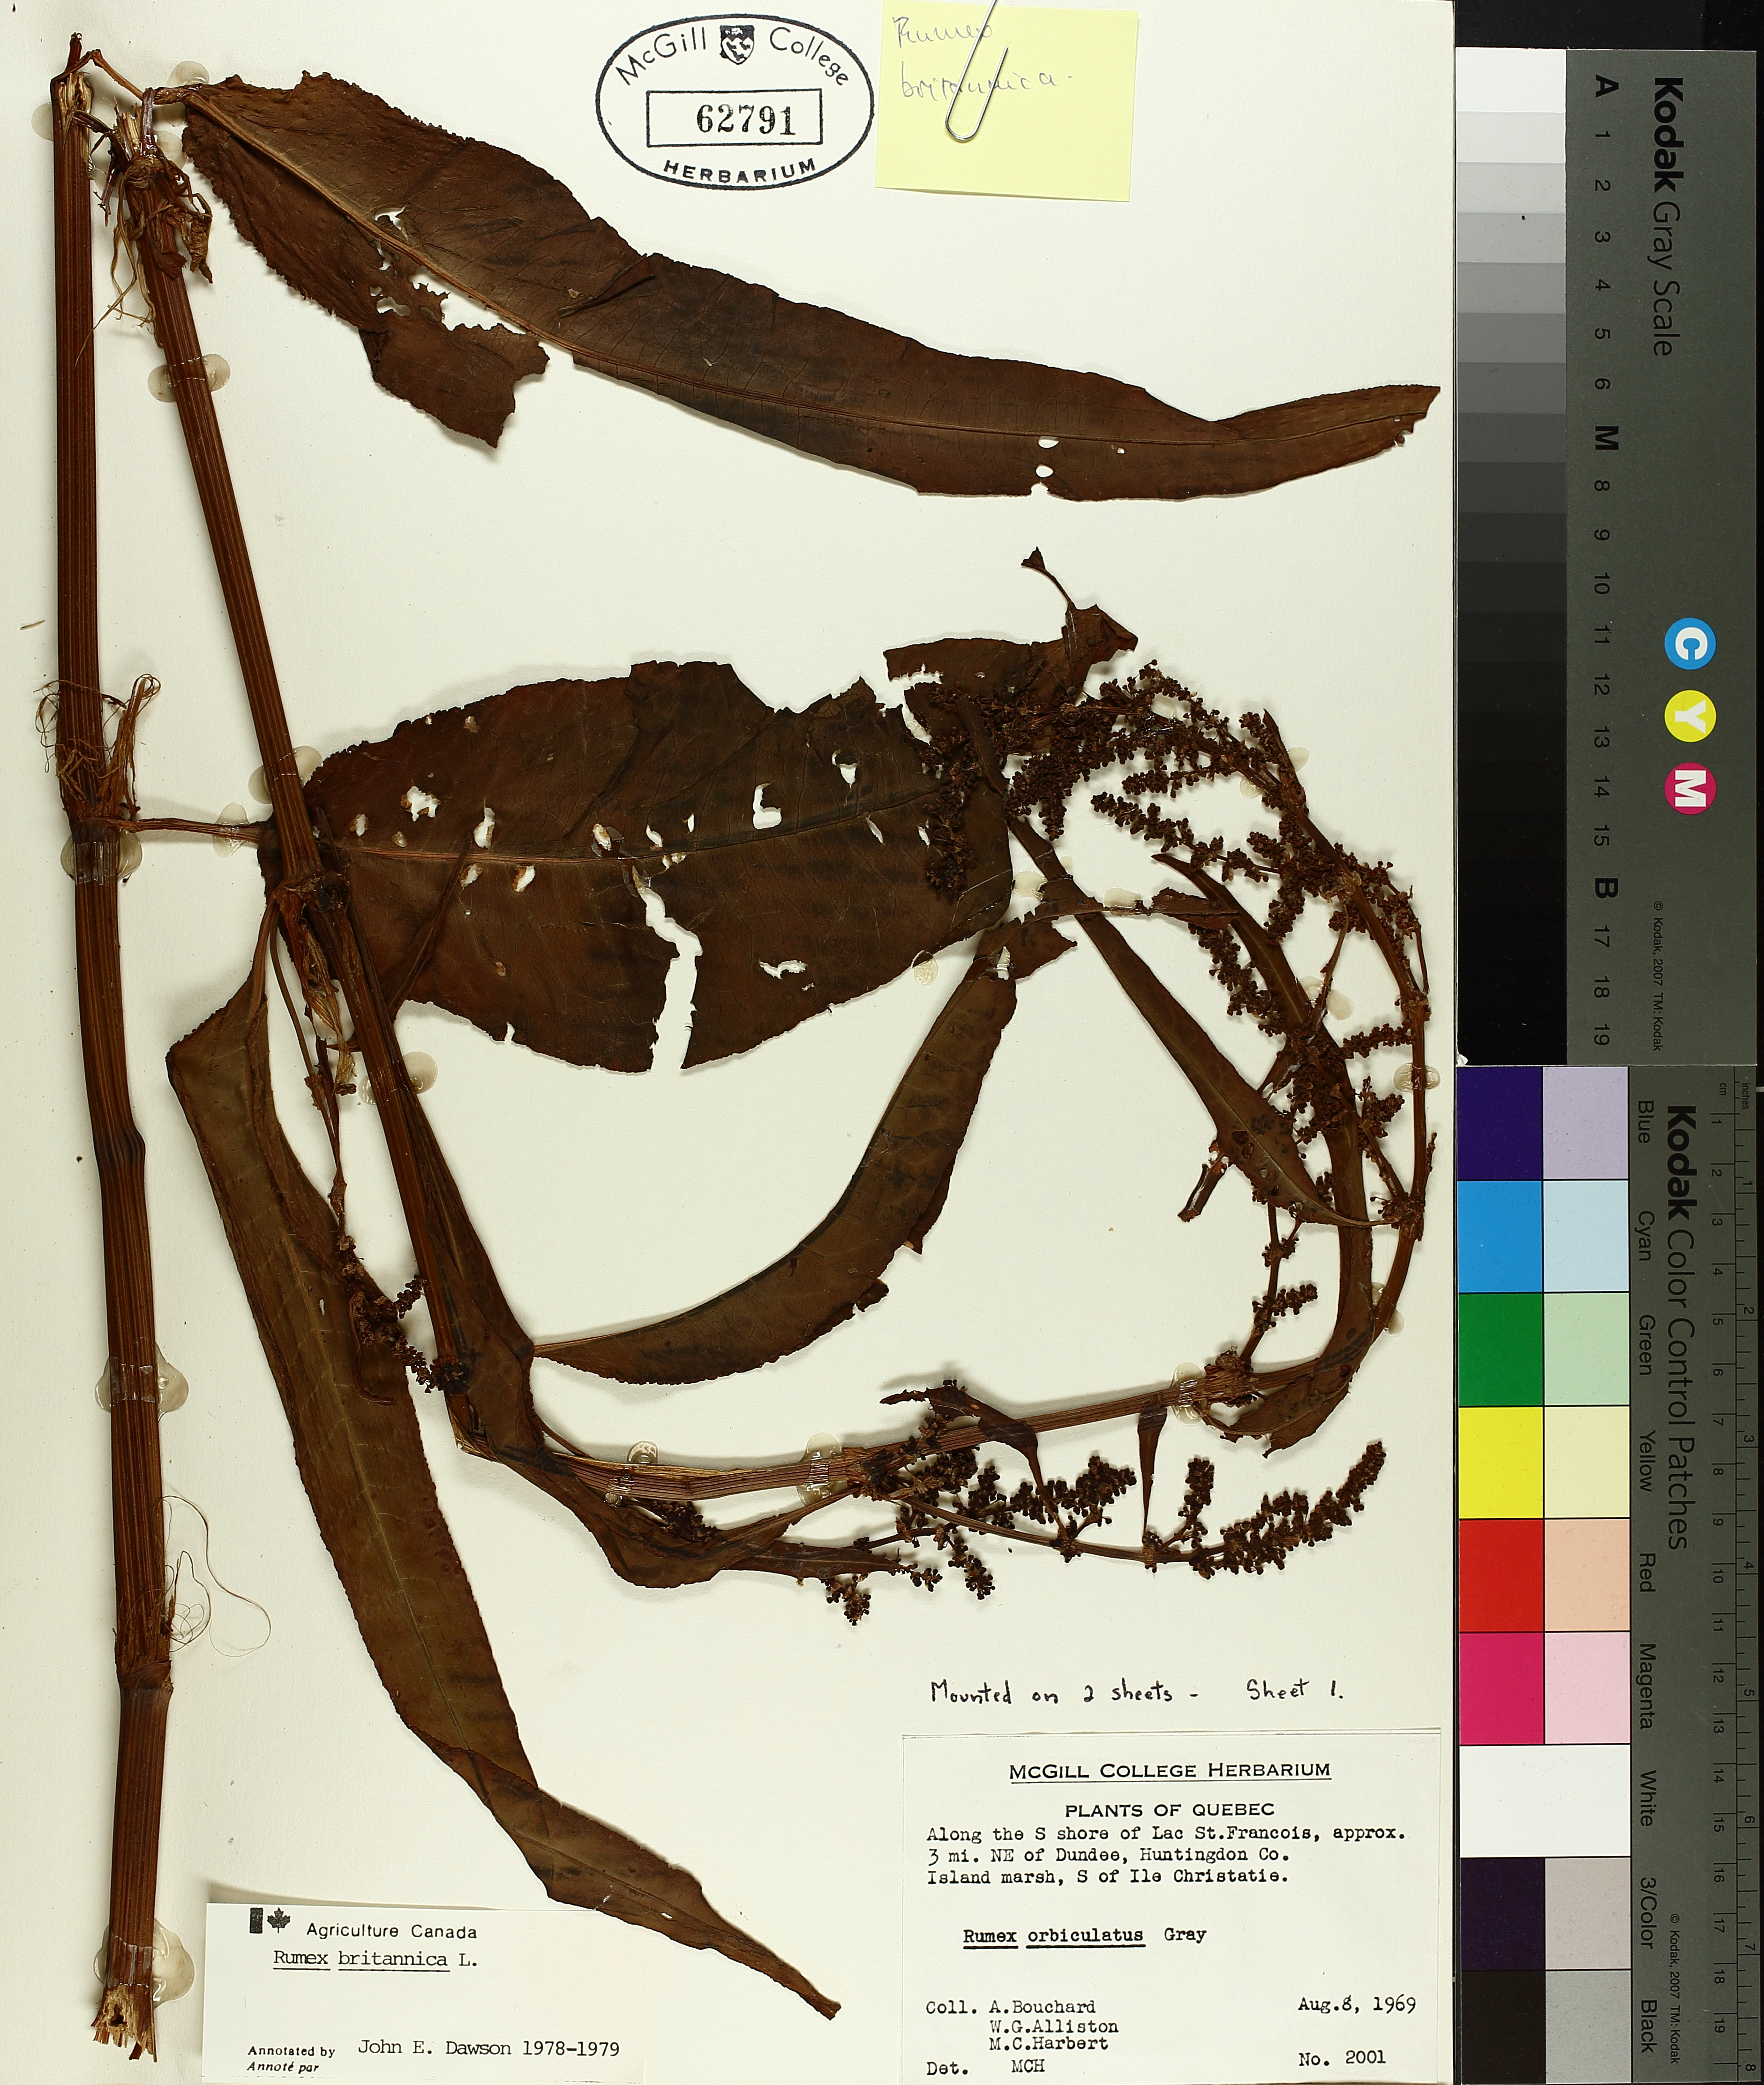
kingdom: Plantae
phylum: Tracheophyta
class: Magnoliopsida
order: Caryophyllales
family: Polygonaceae
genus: Rumex
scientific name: Rumex britannica
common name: British dock
